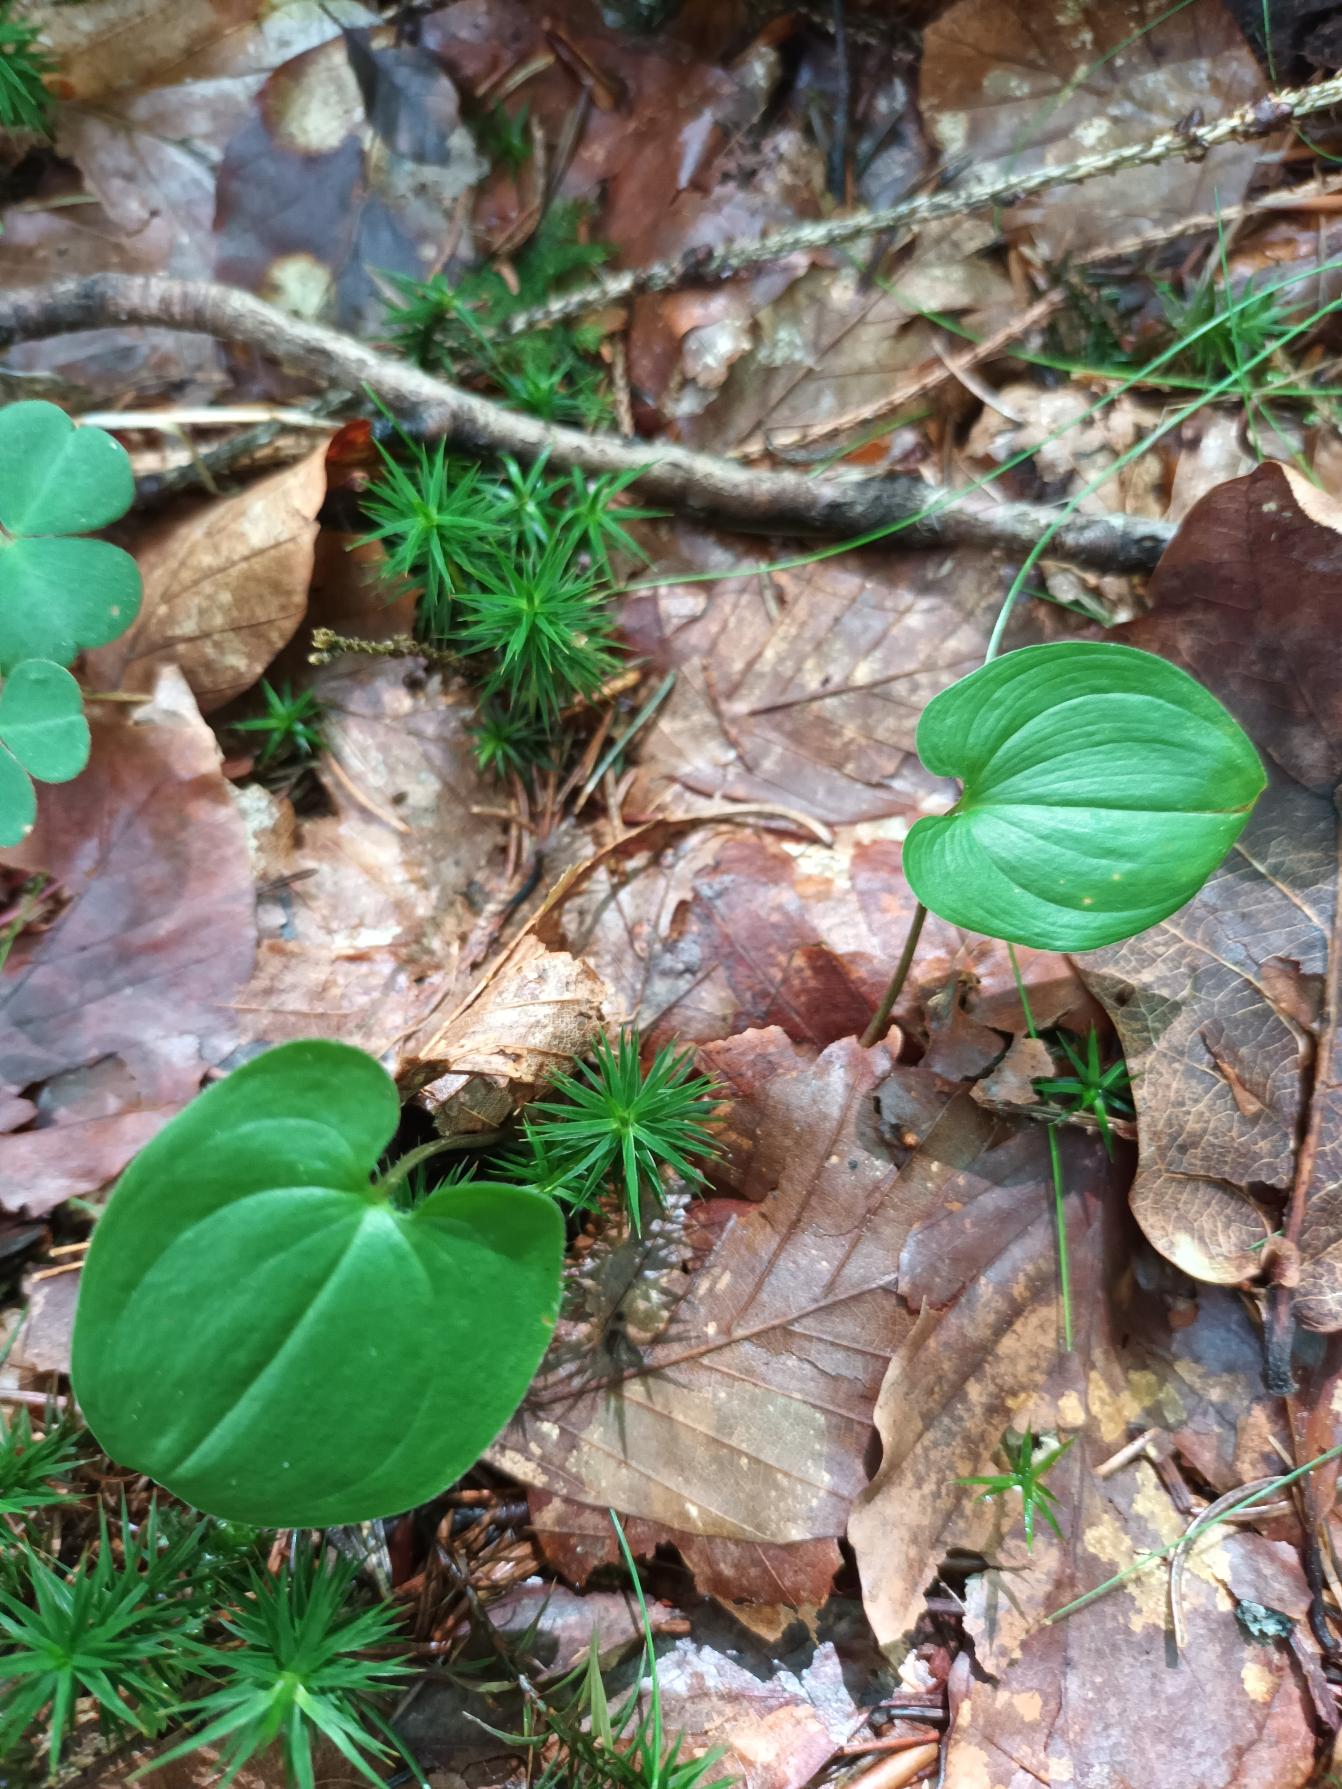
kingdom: Plantae
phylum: Tracheophyta
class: Liliopsida
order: Asparagales
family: Asparagaceae
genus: Maianthemum
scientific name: Maianthemum bifolium
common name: Majblomst
